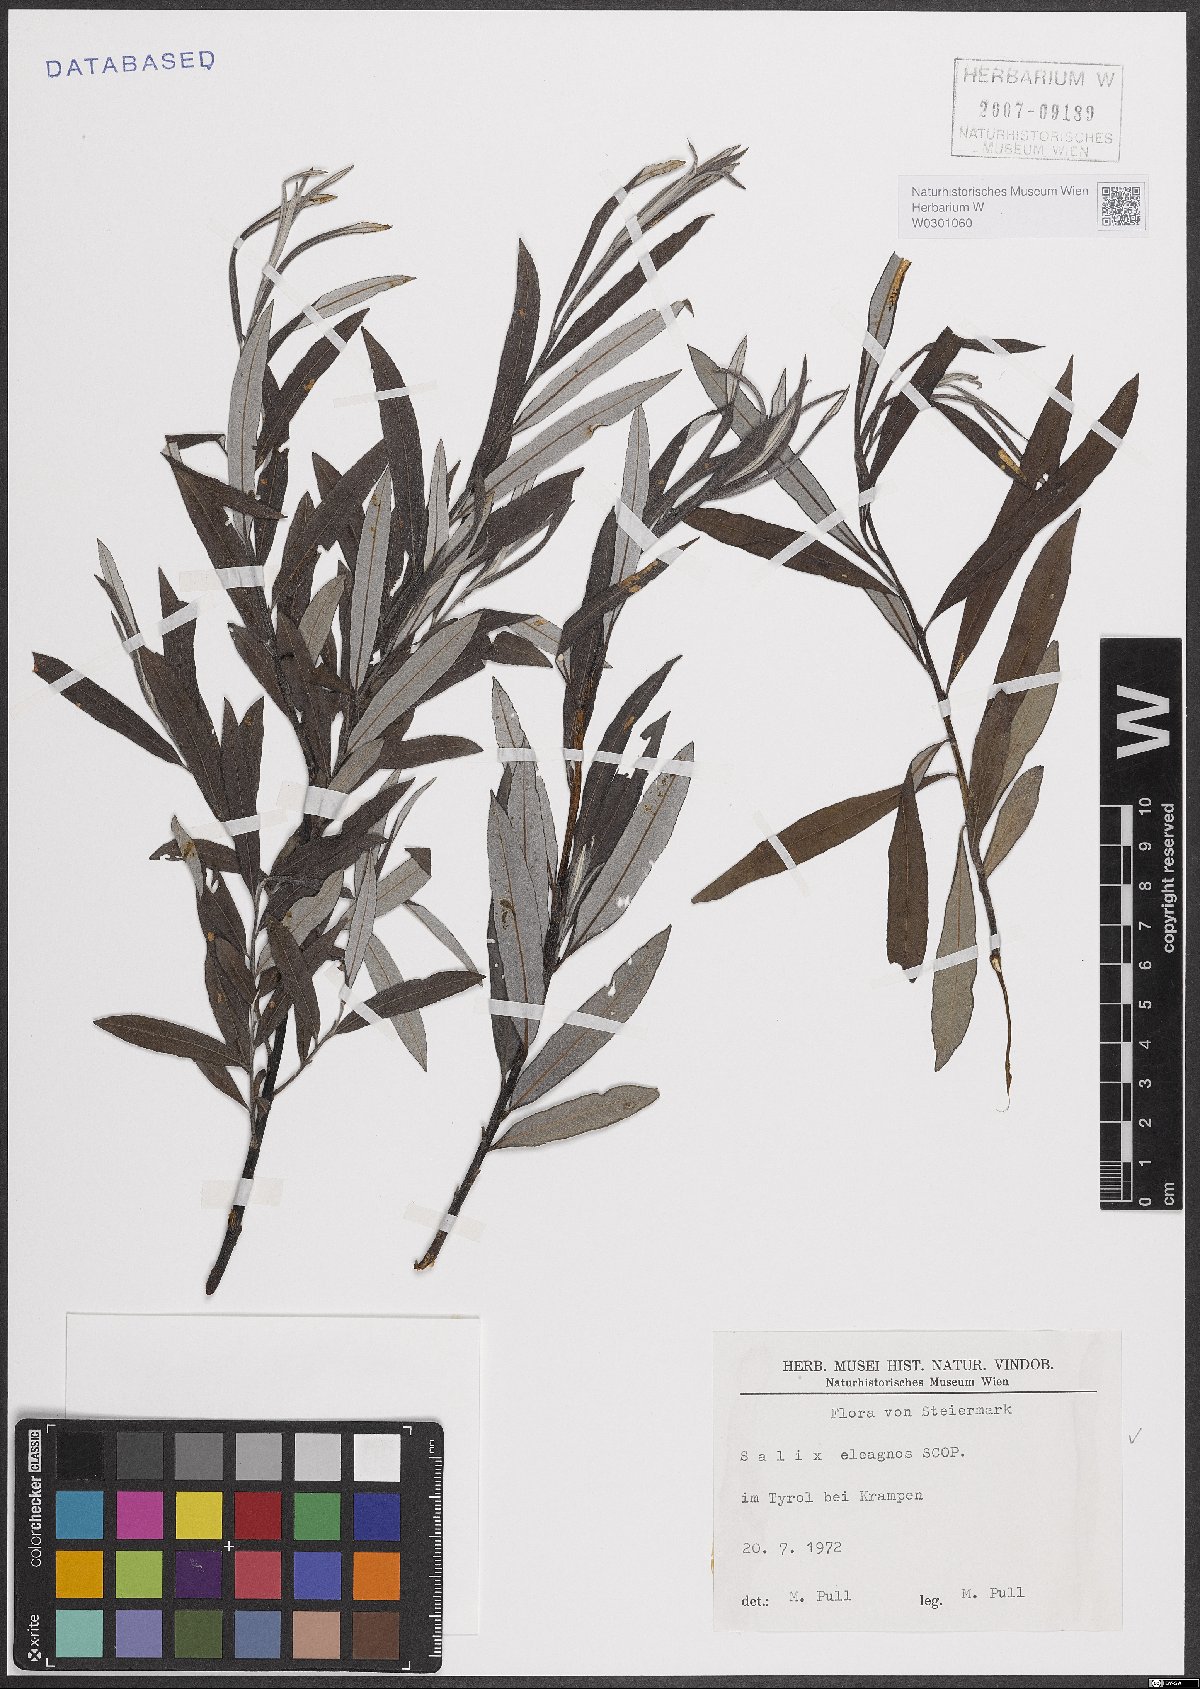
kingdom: Plantae
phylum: Tracheophyta
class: Magnoliopsida
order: Malpighiales
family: Salicaceae
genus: Salix
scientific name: Salix eleagnos
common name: Elaeagnus willow
